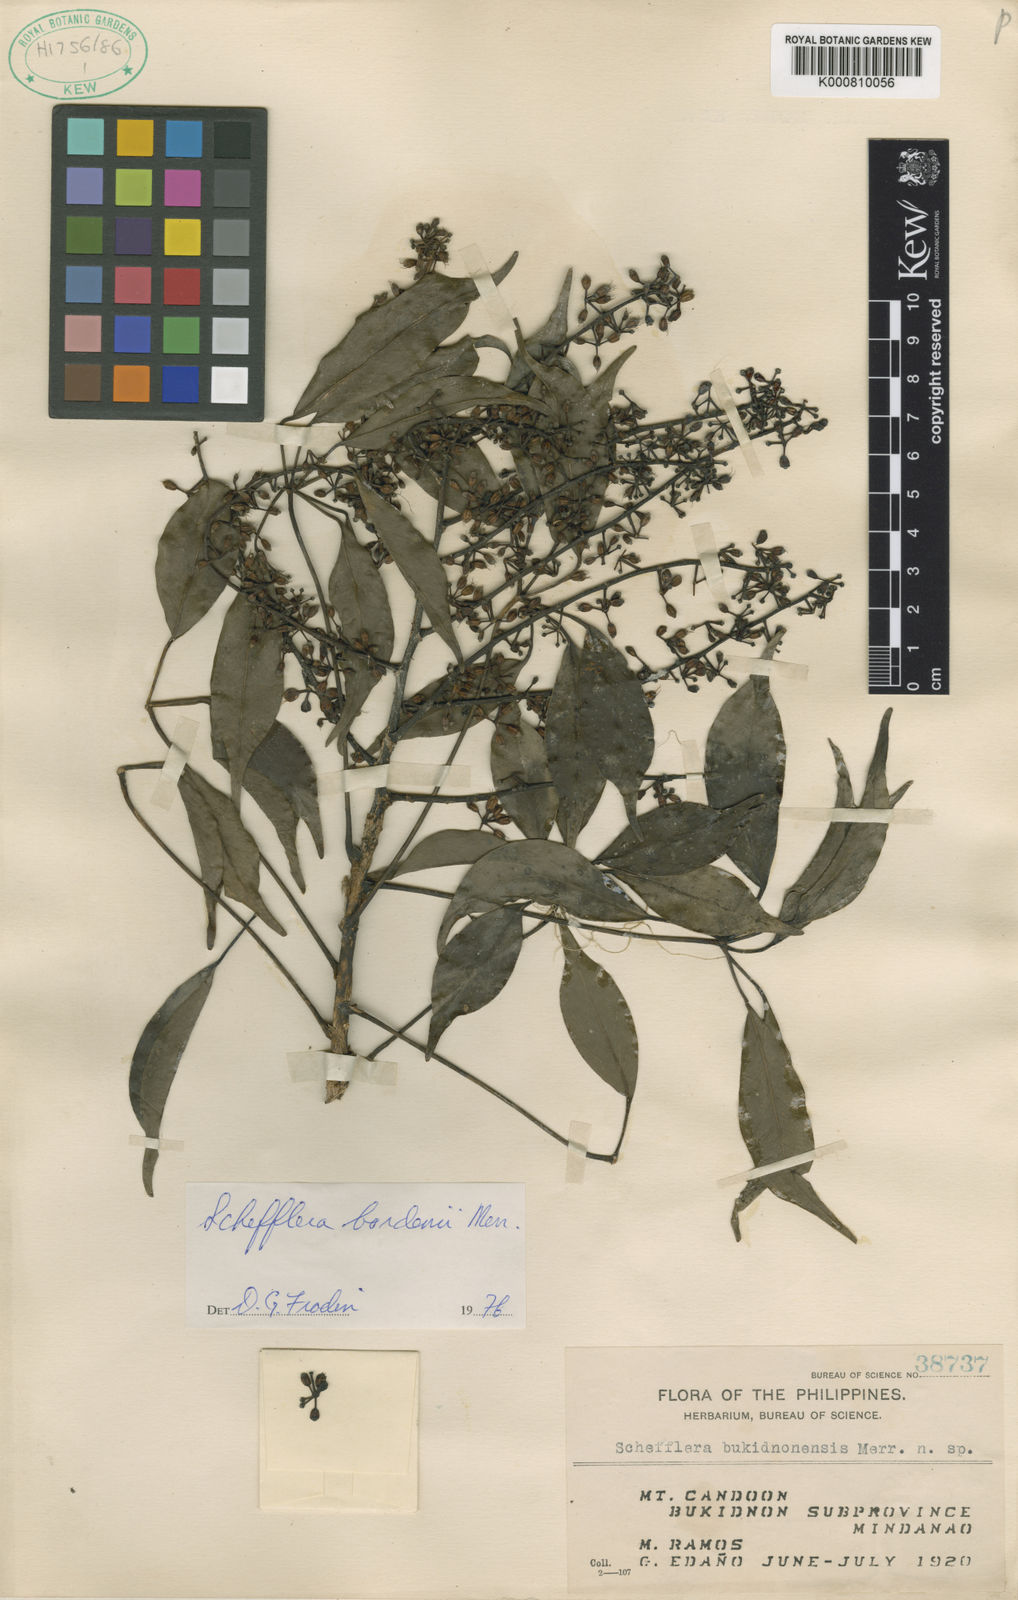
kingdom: Plantae
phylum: Tracheophyta
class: Magnoliopsida
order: Apiales
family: Araliaceae
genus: Heptapleurum
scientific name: Heptapleurum bukidnonense
